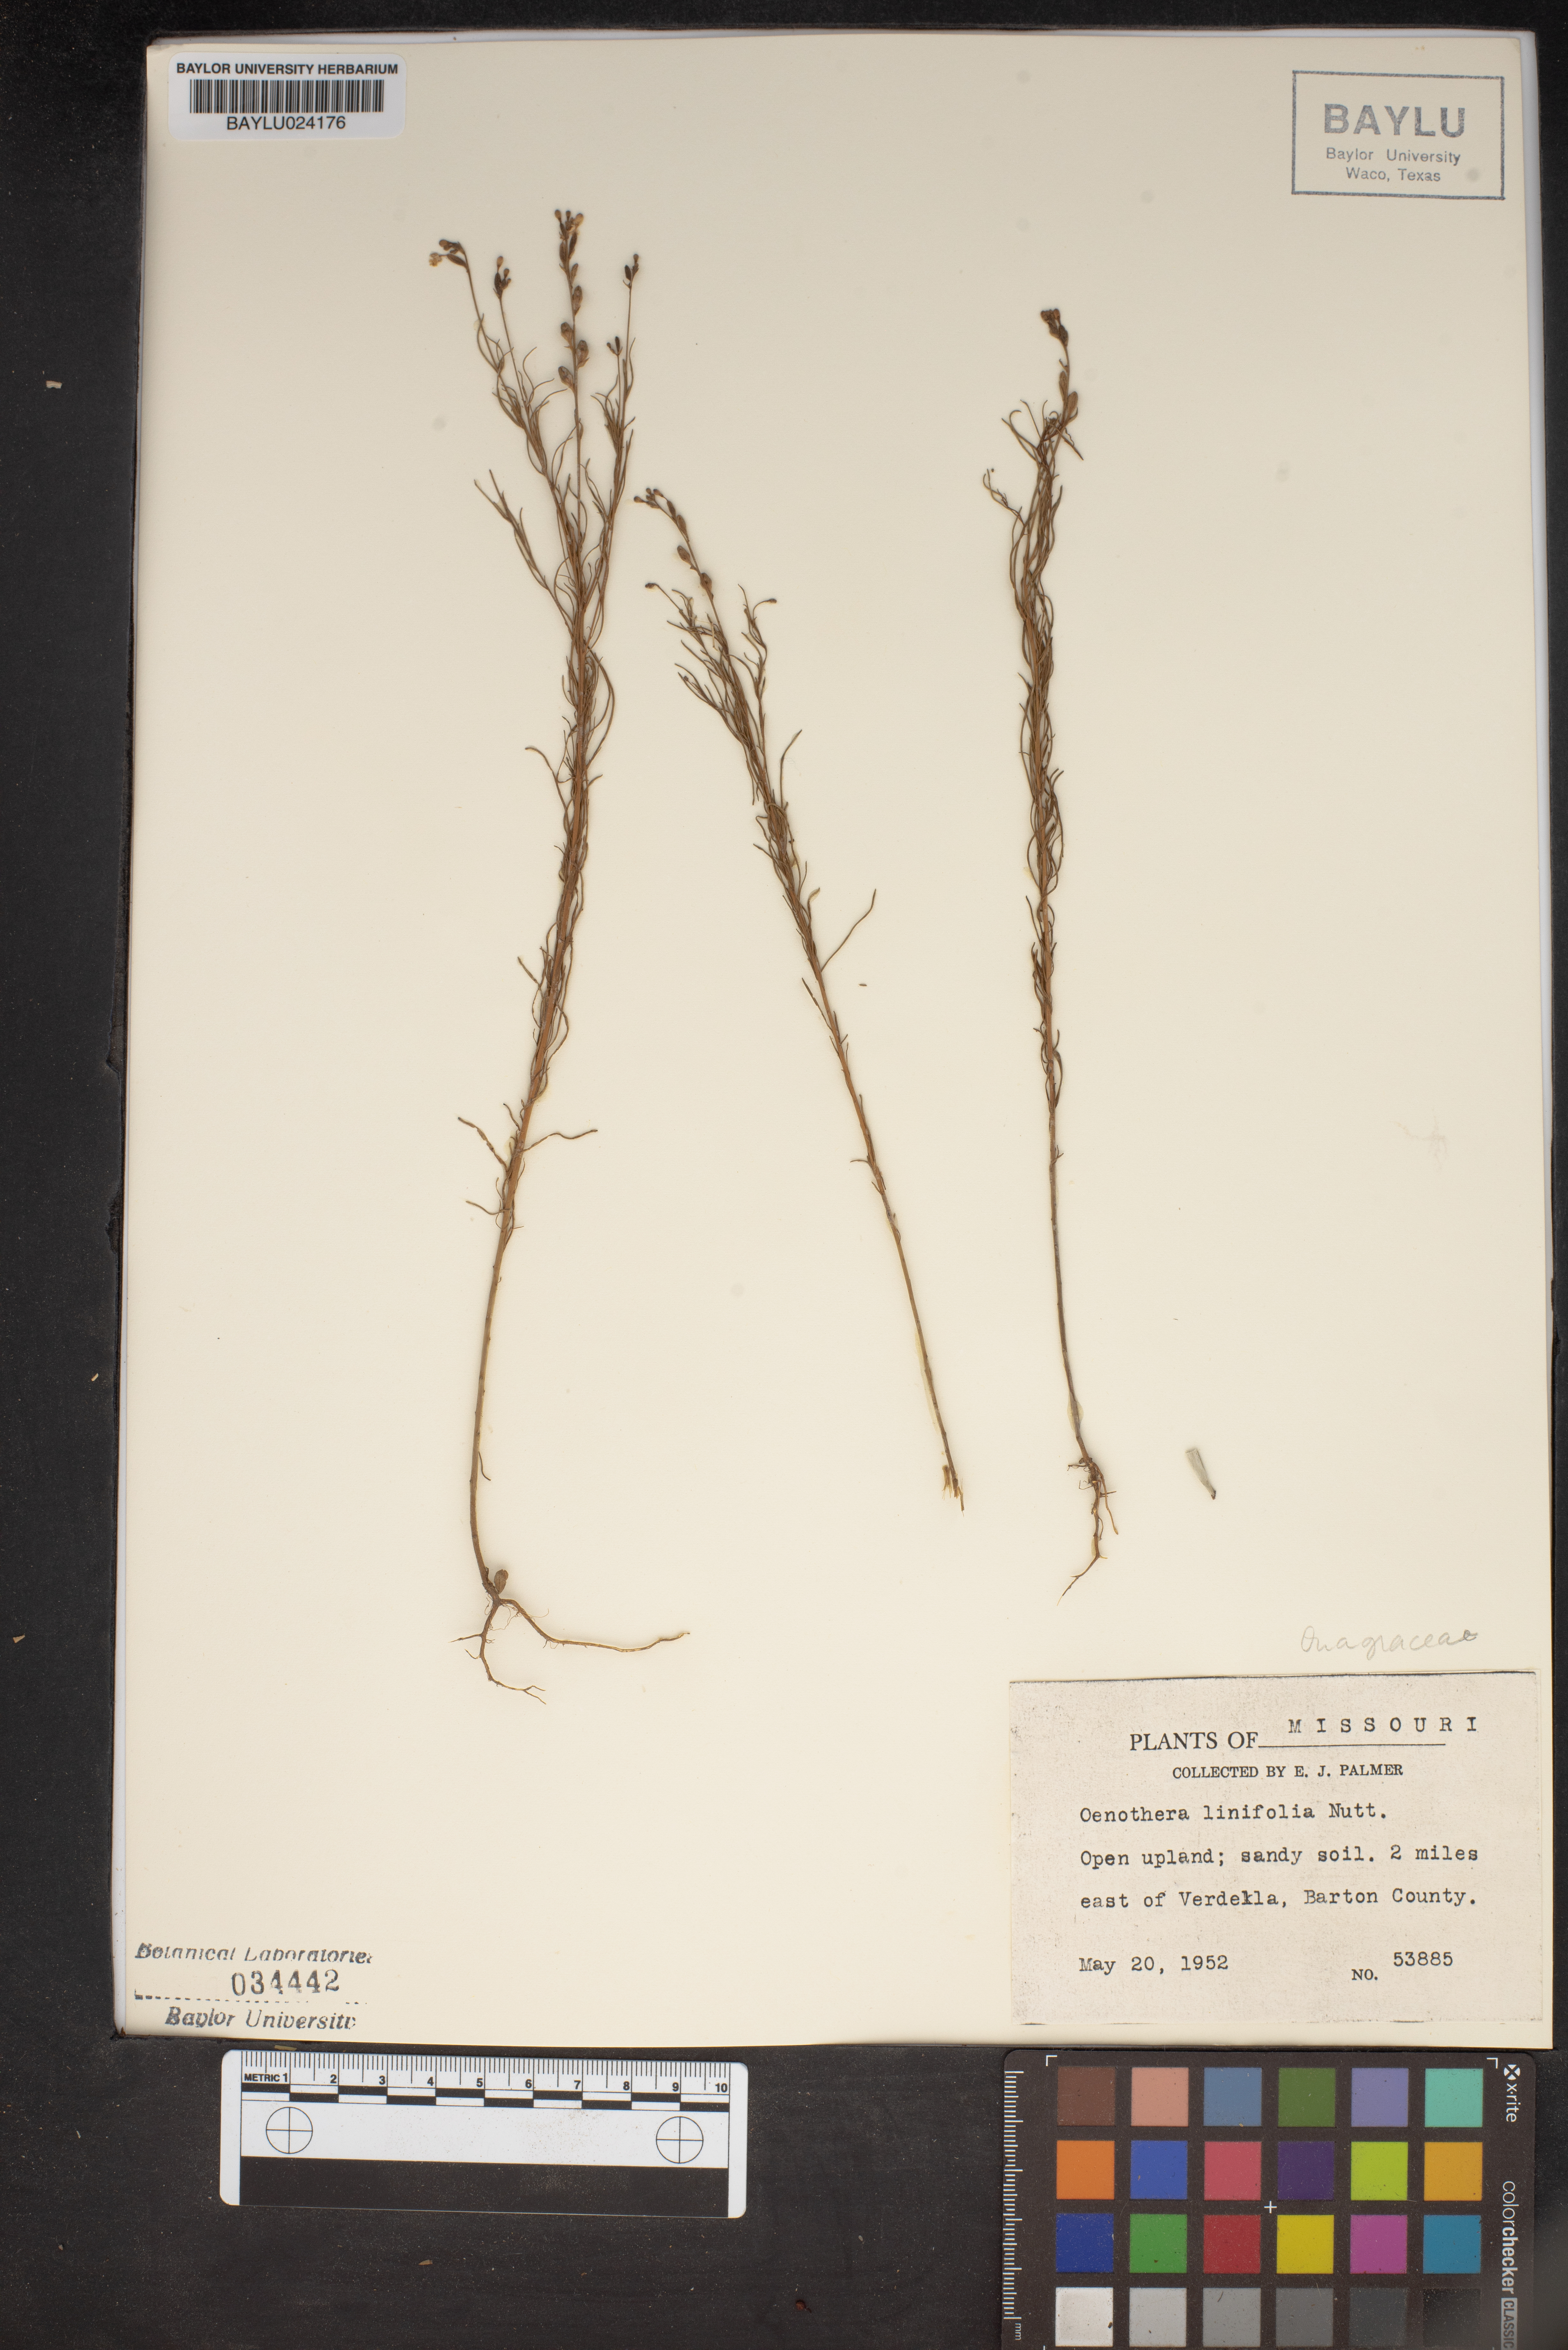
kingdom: Plantae
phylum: Tracheophyta
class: Magnoliopsida
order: Myrtales
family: Onagraceae
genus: Oenothera
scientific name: Oenothera linifolia
